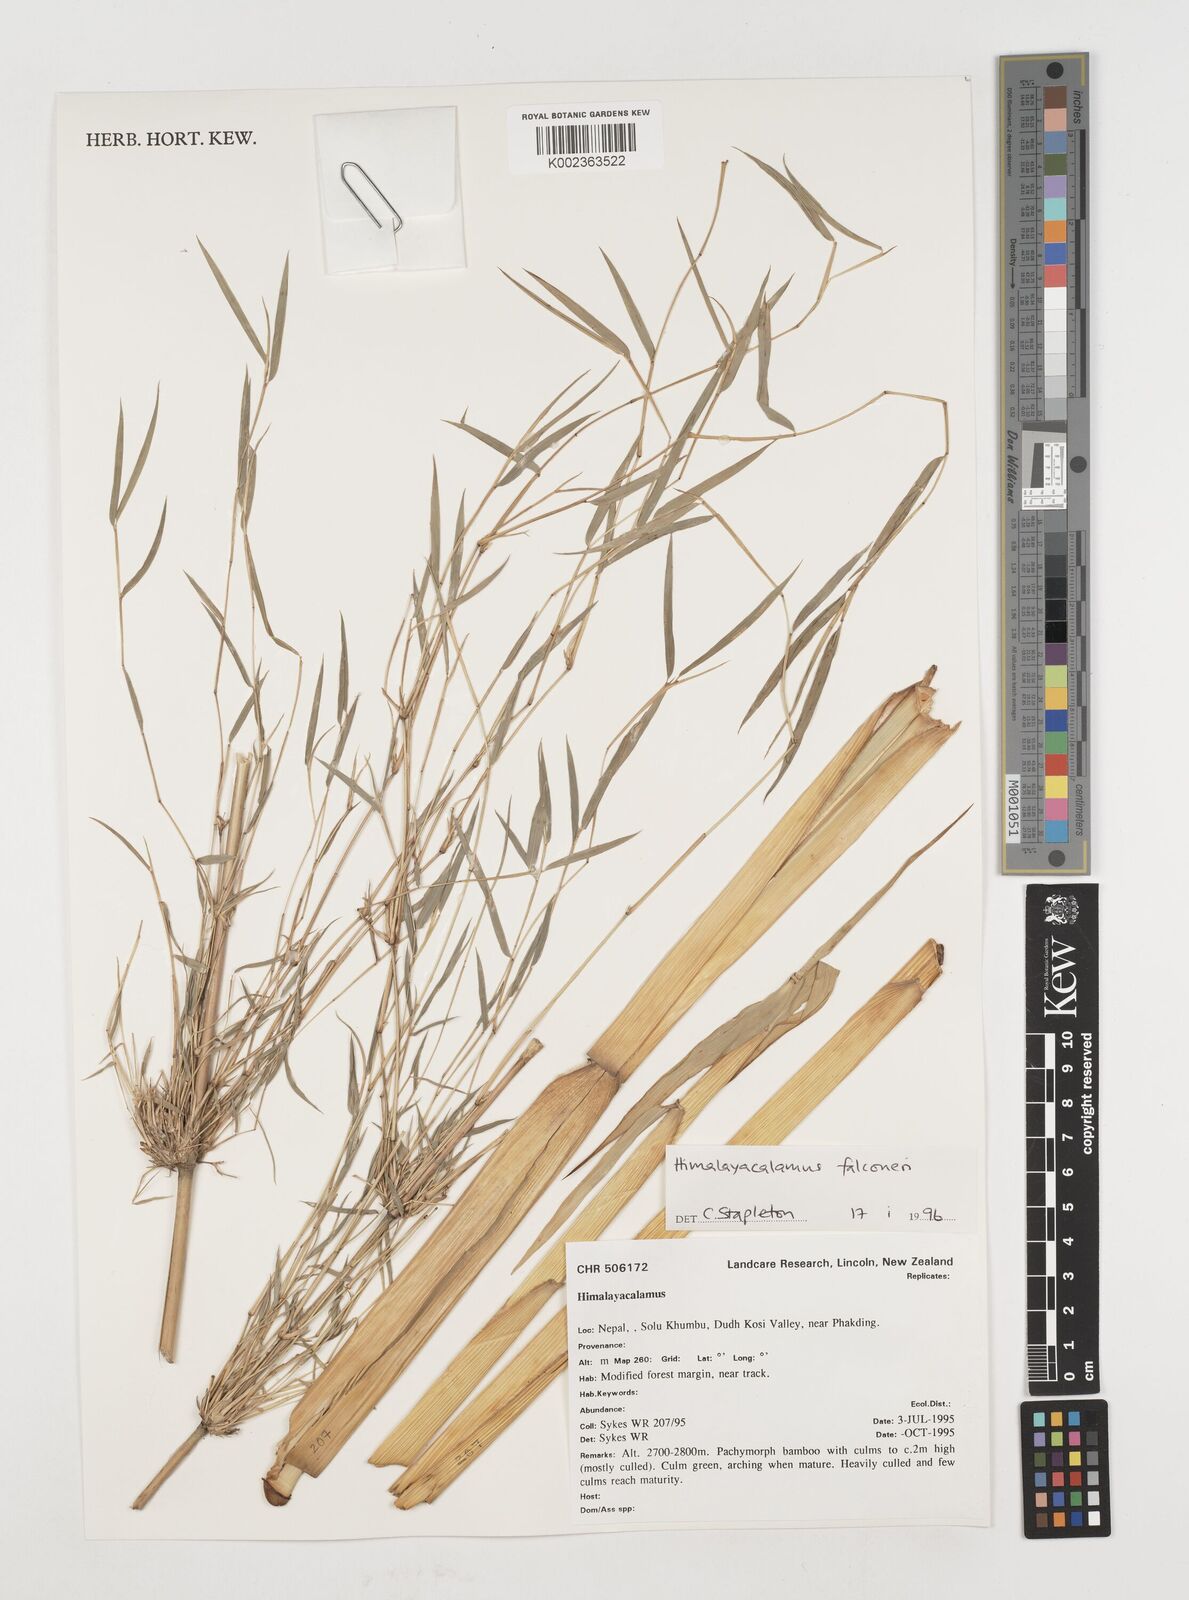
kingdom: Plantae
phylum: Tracheophyta
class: Liliopsida
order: Poales
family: Poaceae
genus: Himalayacalamus
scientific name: Himalayacalamus
